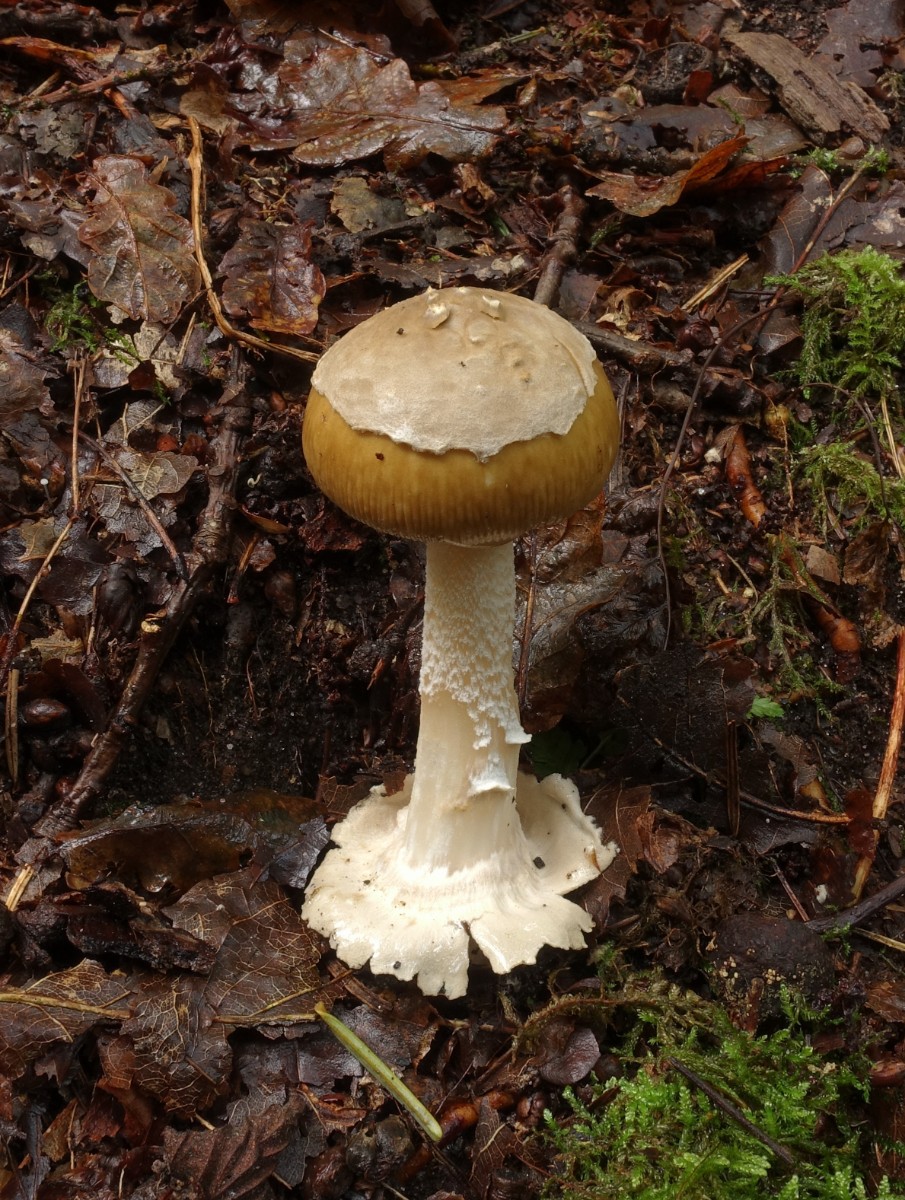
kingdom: Fungi
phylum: Basidiomycota
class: Agaricomycetes
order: Agaricales
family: Amanitaceae
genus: Amanita
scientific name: Amanita olivaceogrisea
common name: olivengrå kam-fluesvamp
